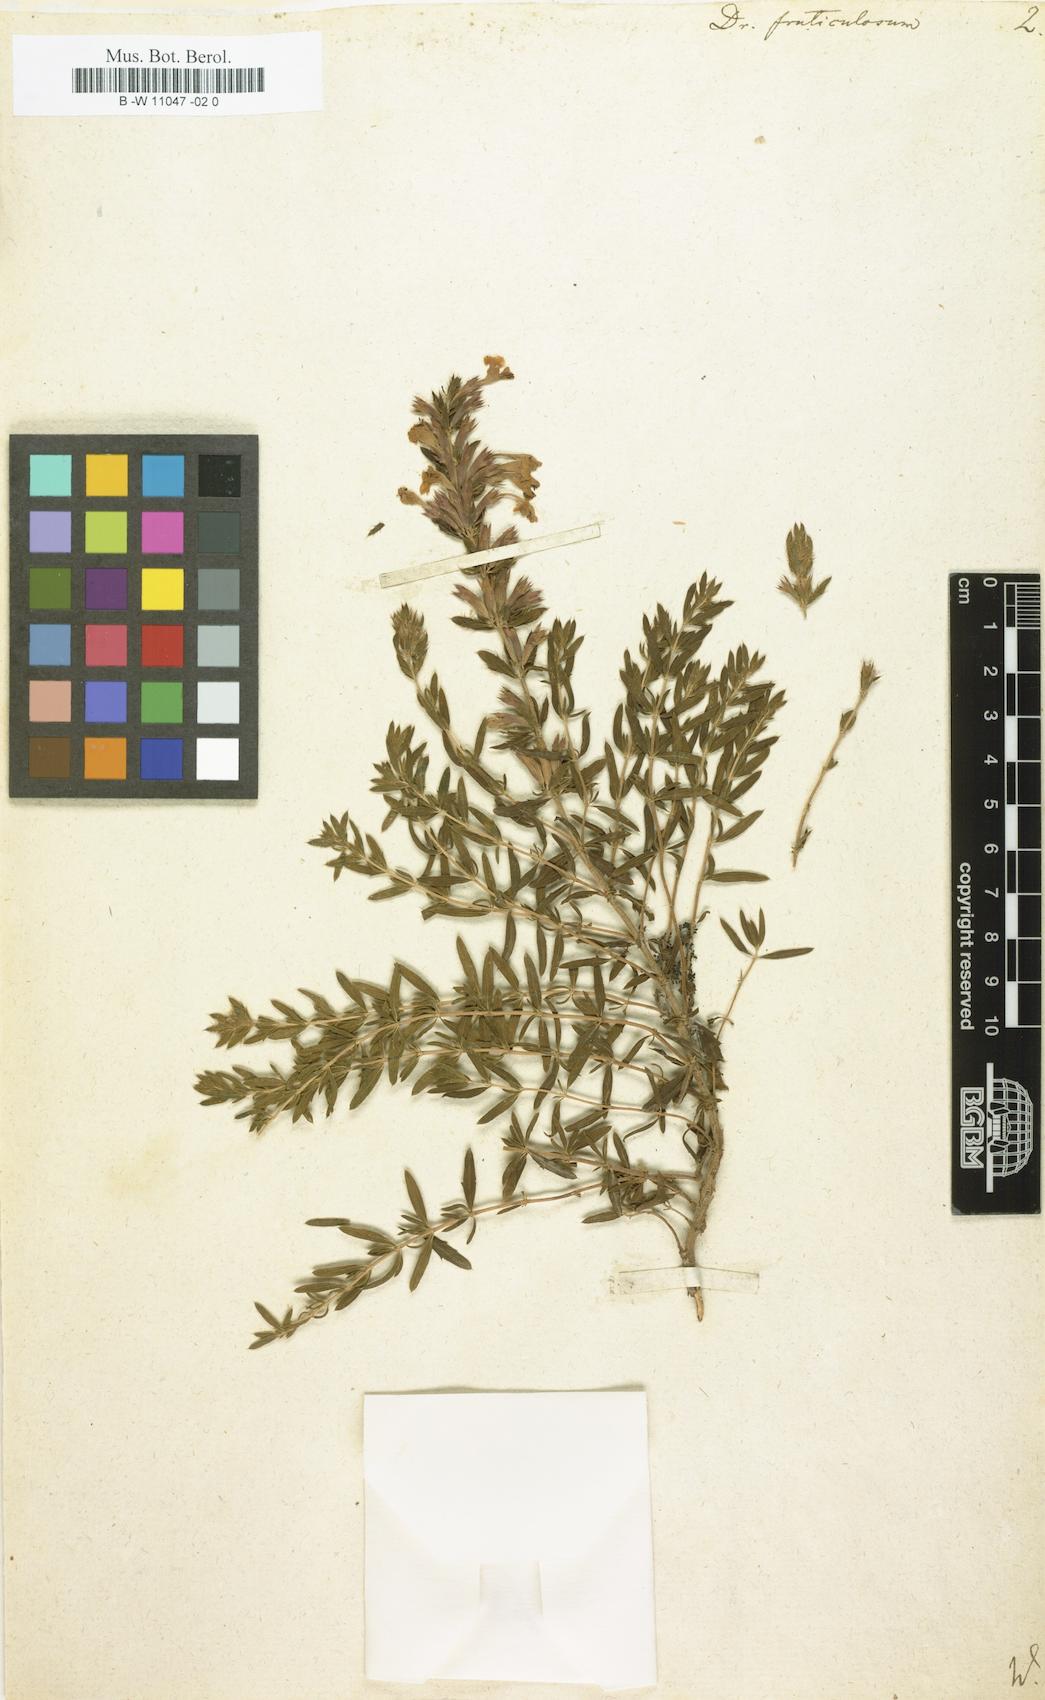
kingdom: Plantae
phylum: Tracheophyta
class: Magnoliopsida
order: Lamiales
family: Lamiaceae
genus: Dracocephalum
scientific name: Dracocephalum fruticulosum
